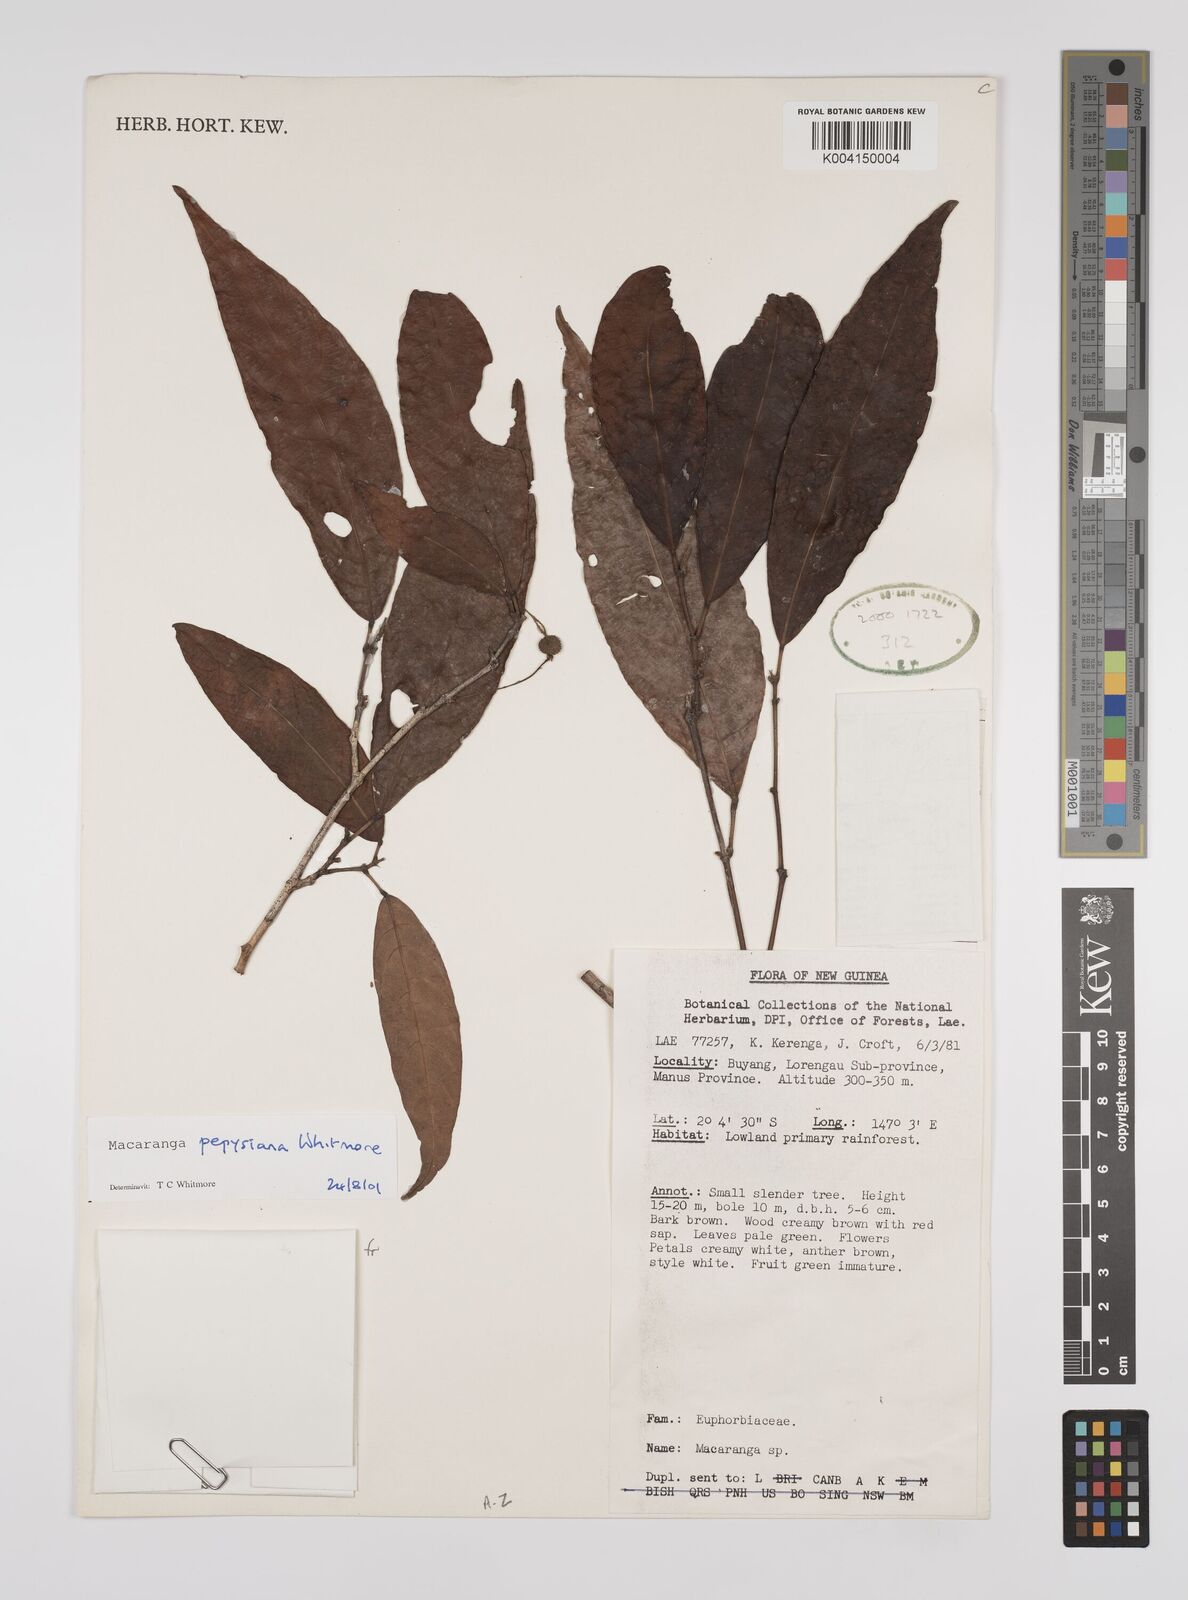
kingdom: Plantae
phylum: Tracheophyta
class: Magnoliopsida
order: Malpighiales
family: Euphorbiaceae
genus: Macaranga
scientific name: Macaranga pepysiana
